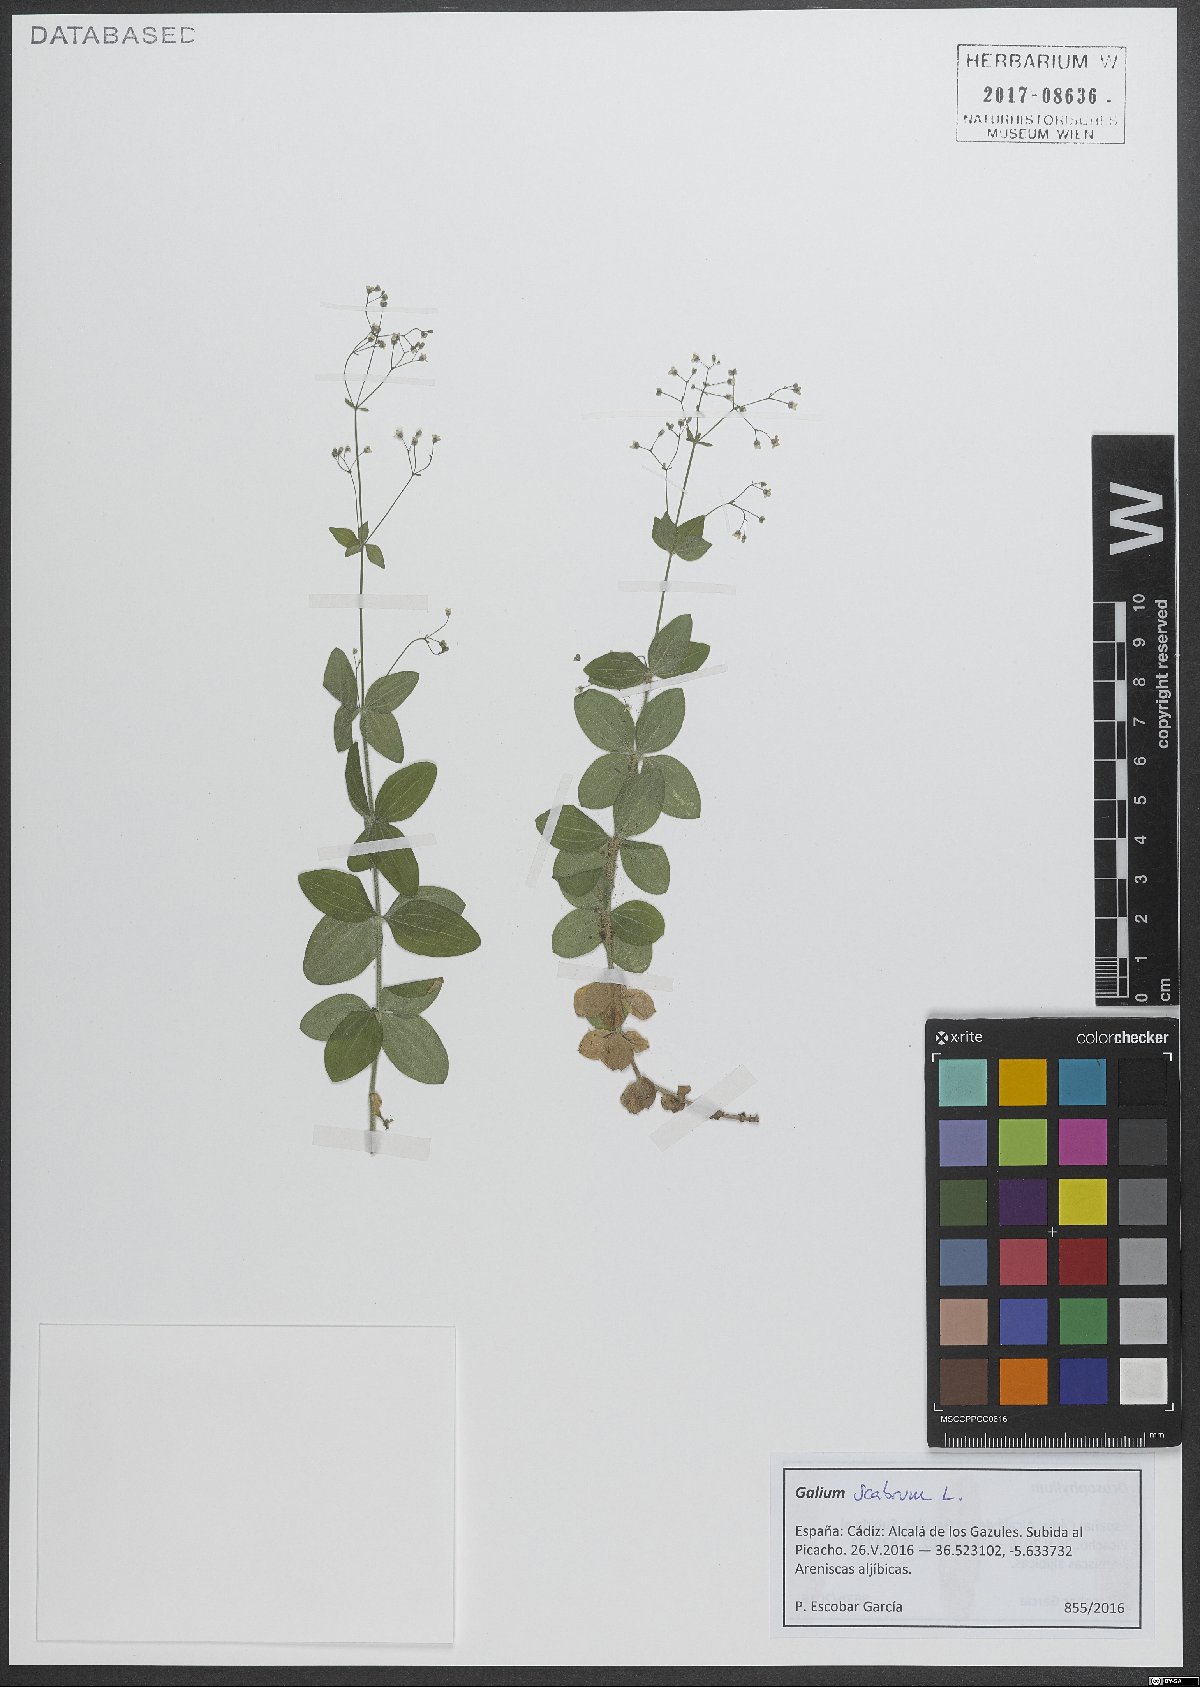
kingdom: Plantae
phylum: Tracheophyta
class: Magnoliopsida
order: Gentianales
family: Rubiaceae
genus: Galium
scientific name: Galium scabrum
